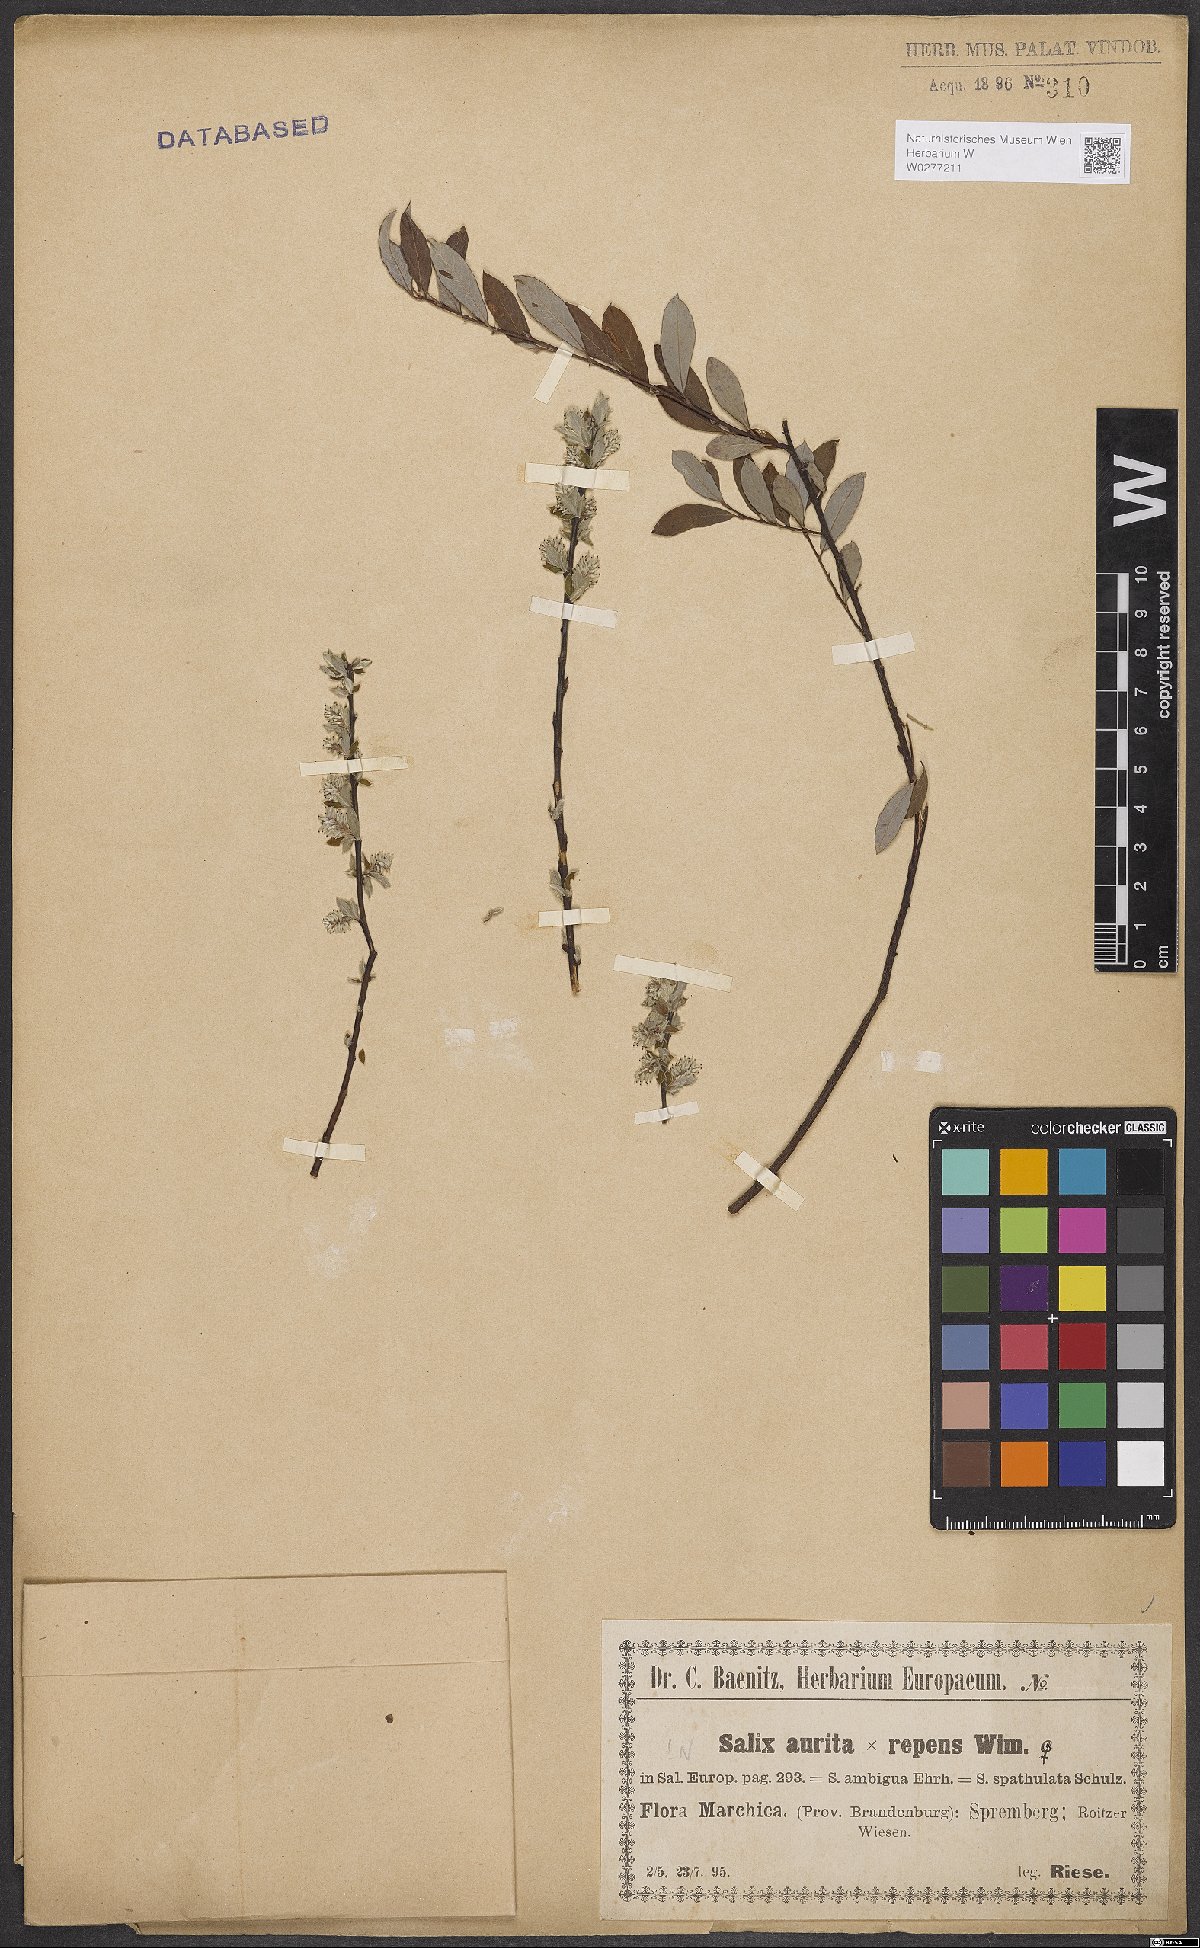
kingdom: Plantae
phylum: Tracheophyta
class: Magnoliopsida
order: Malpighiales
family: Salicaceae
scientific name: Salicaceae
